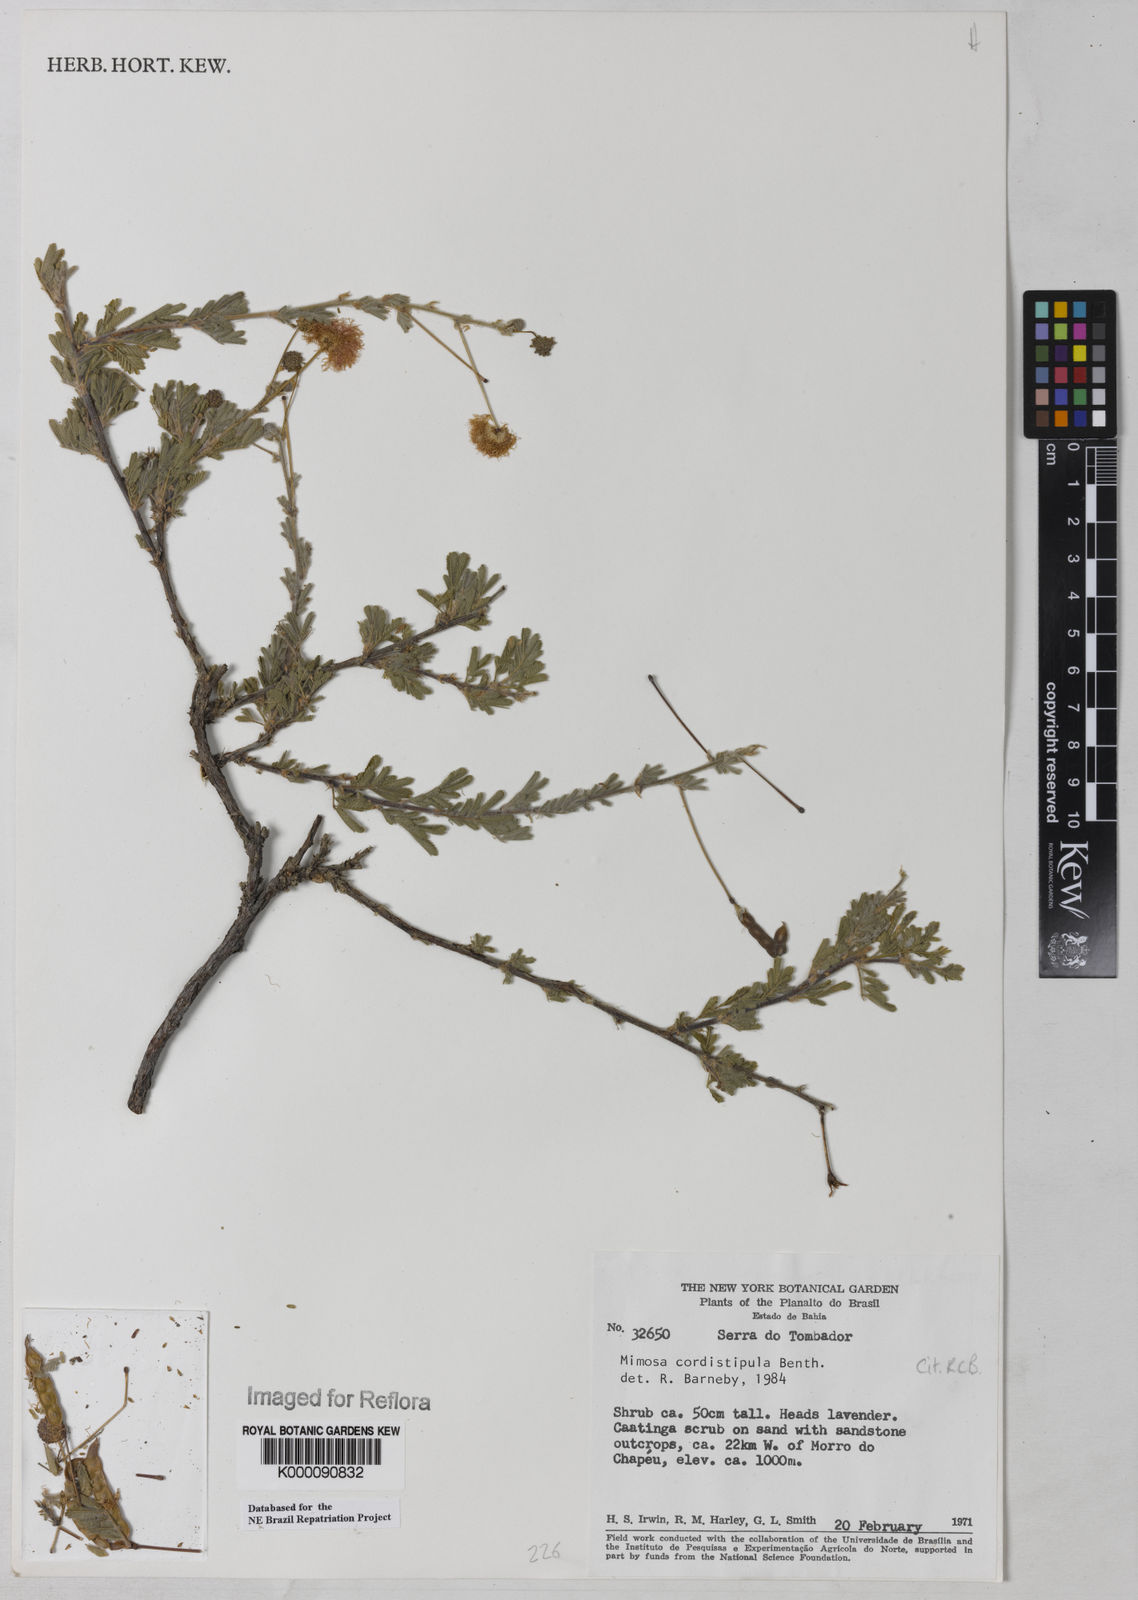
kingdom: Plantae
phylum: Tracheophyta
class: Magnoliopsida
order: Fabales
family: Fabaceae
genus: Mimosa
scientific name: Mimosa cordistipula
